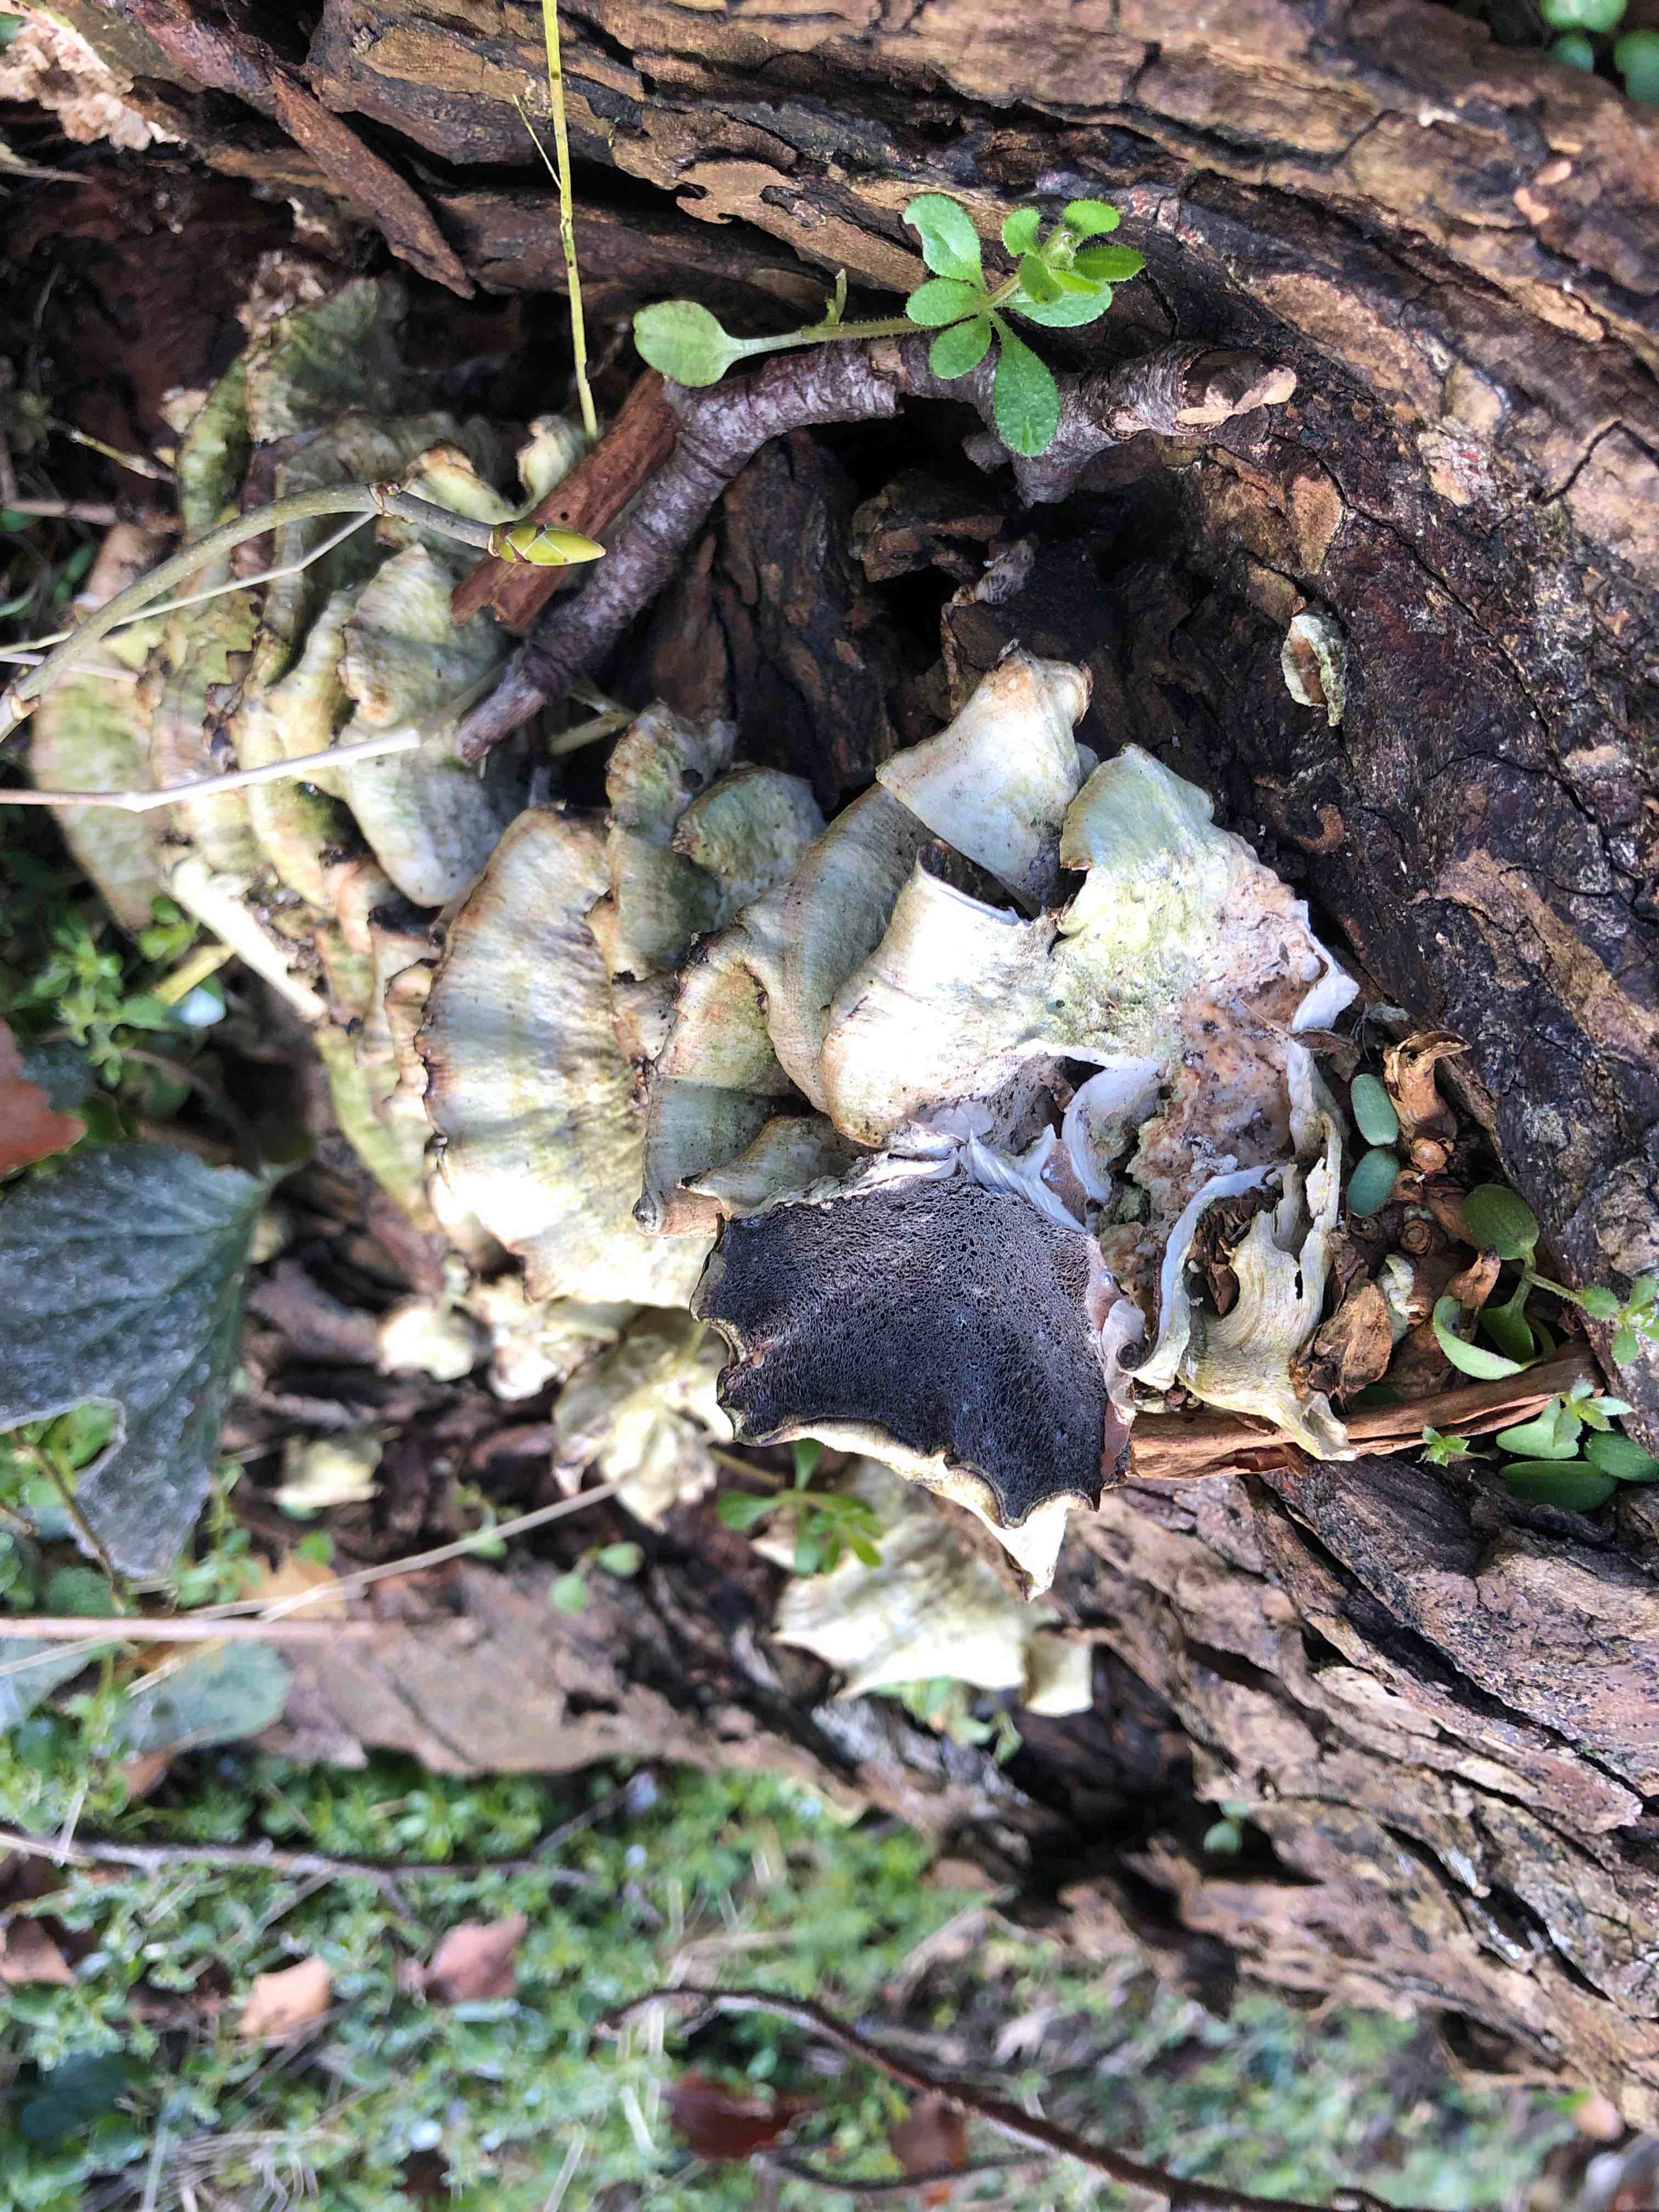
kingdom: Fungi
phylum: Basidiomycota
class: Agaricomycetes
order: Polyporales
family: Phanerochaetaceae
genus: Bjerkandera
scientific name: Bjerkandera adusta
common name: sveden sodporesvamp
